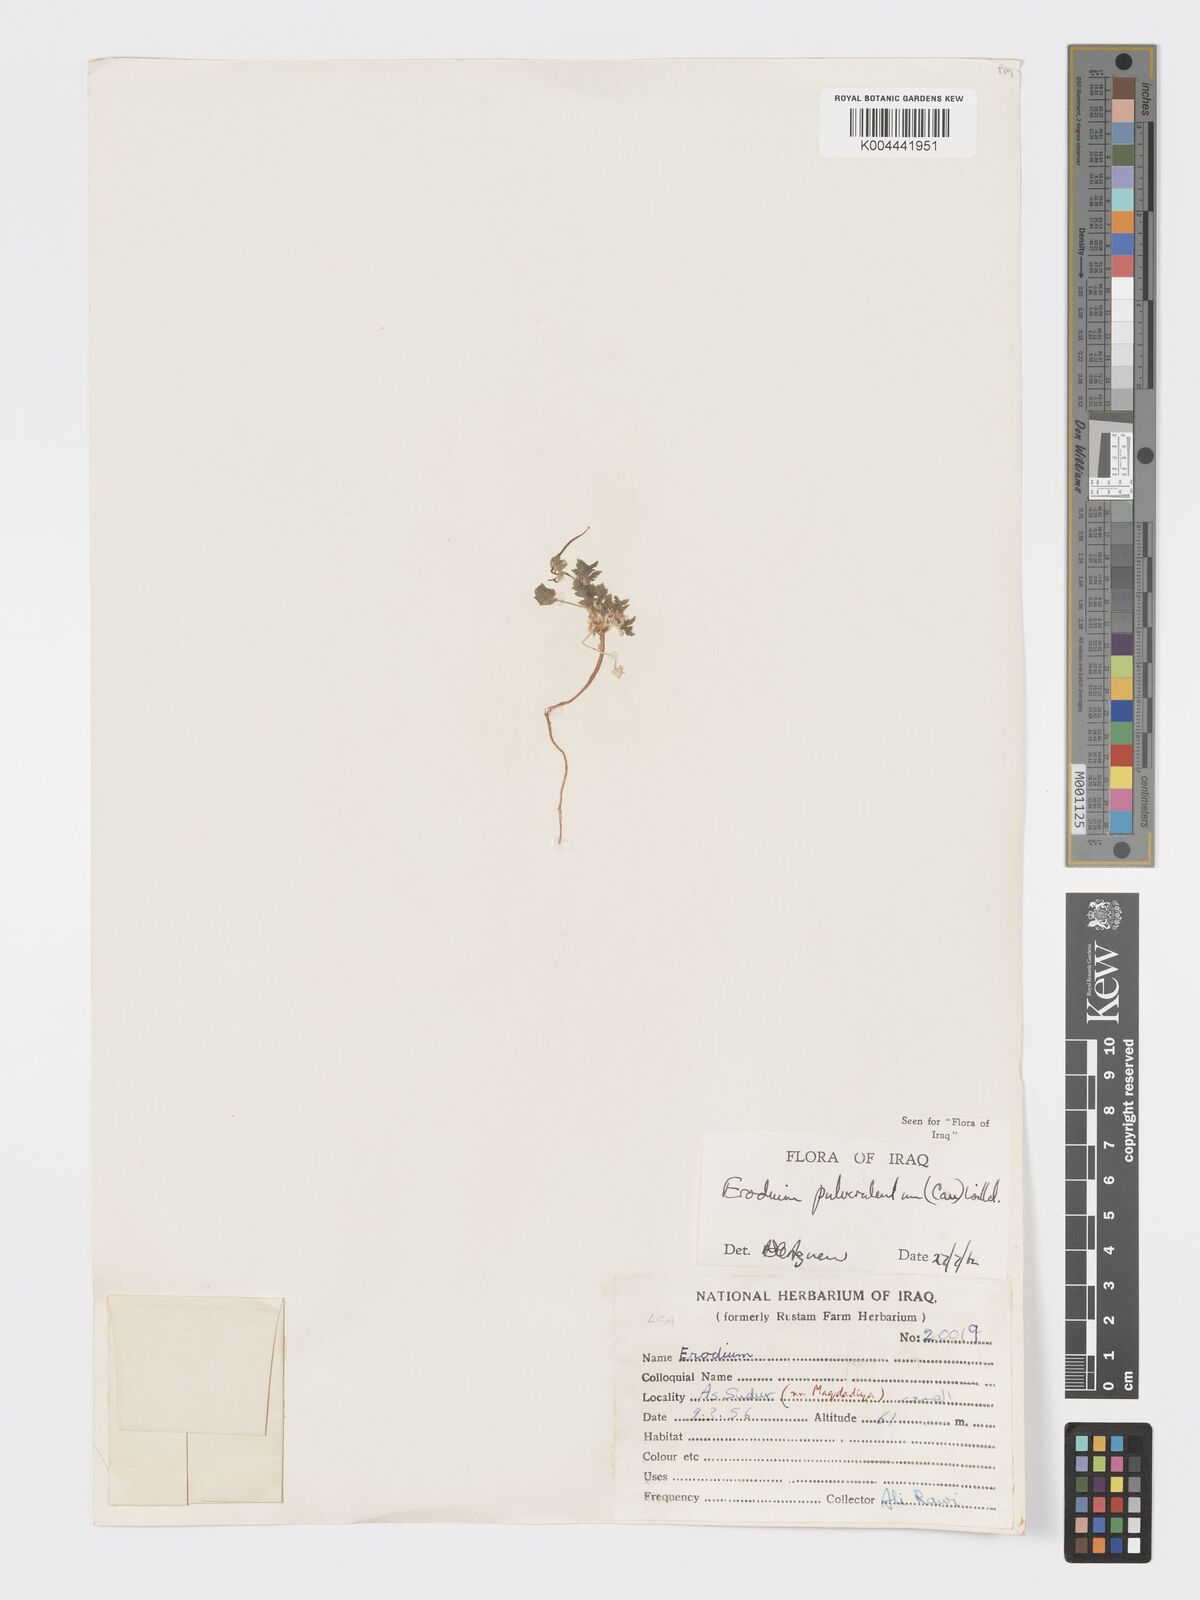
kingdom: Plantae
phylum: Tracheophyta
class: Magnoliopsida
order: Geraniales
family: Geraniaceae
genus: Erodium
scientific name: Erodium laciniatum
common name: Cutleaf stork's bill
